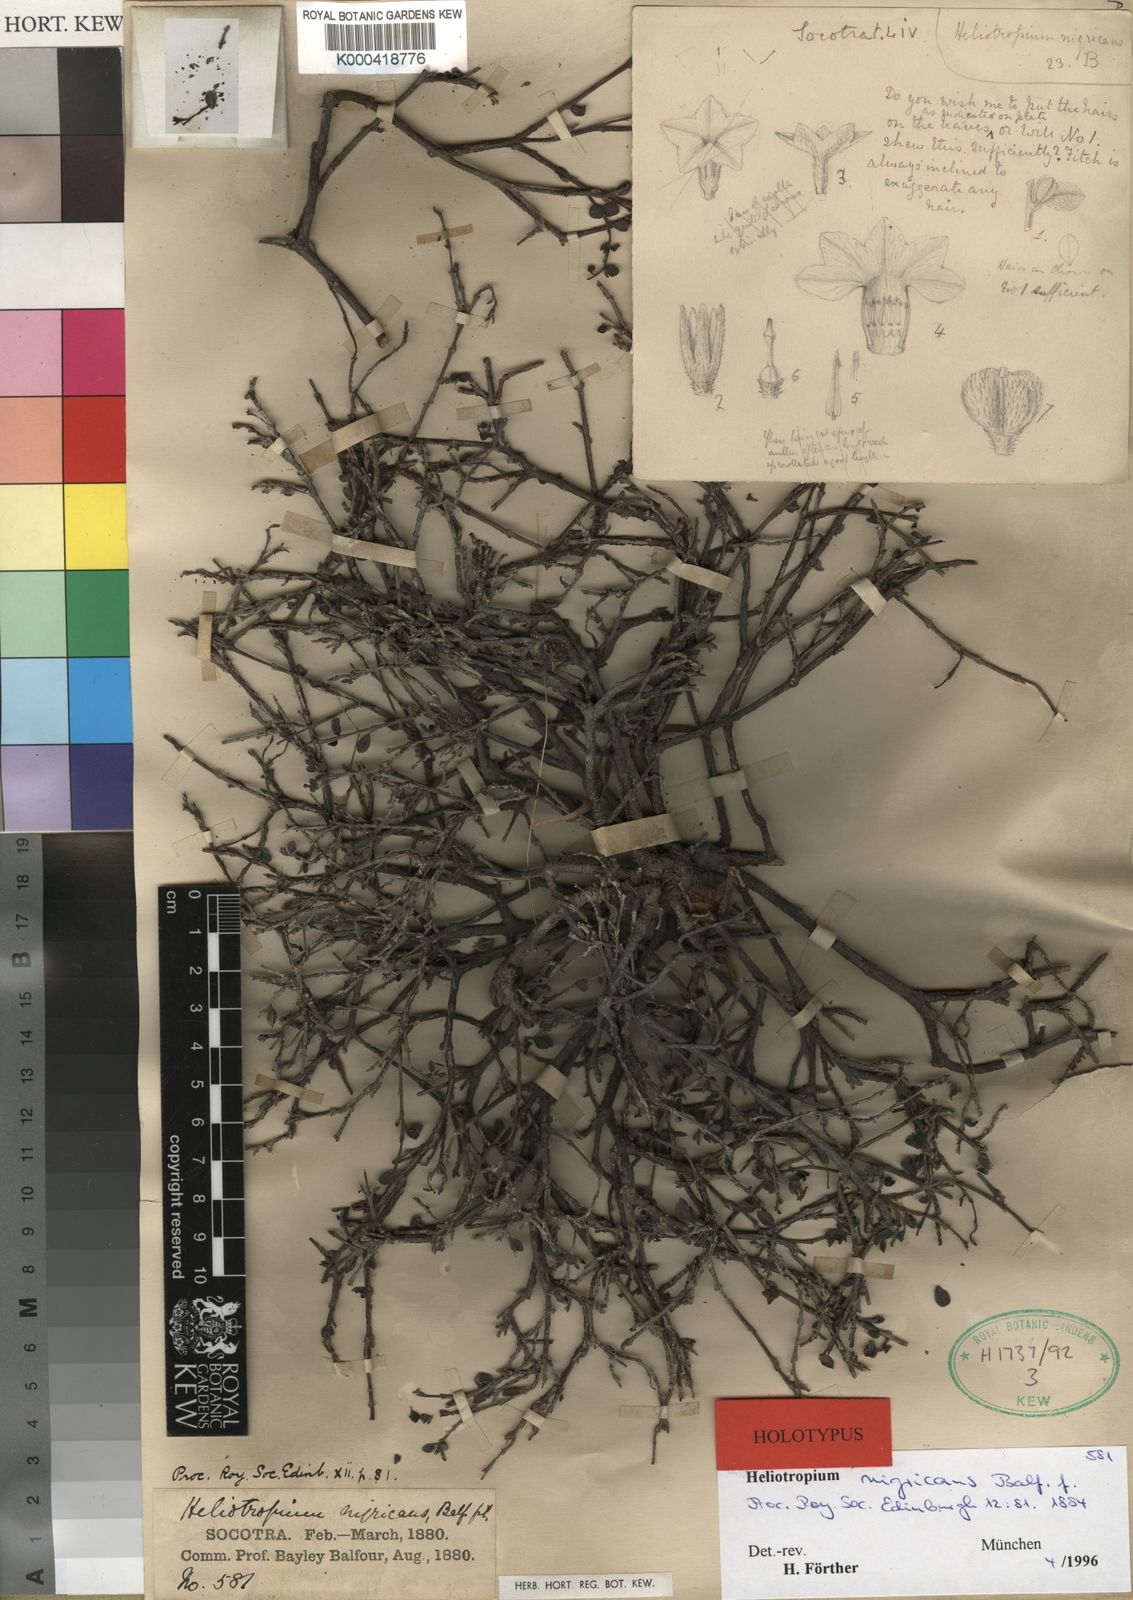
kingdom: Plantae
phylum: Tracheophyta
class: Magnoliopsida
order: Boraginales
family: Heliotropiaceae
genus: Euploca
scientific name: Euploca nigricans
